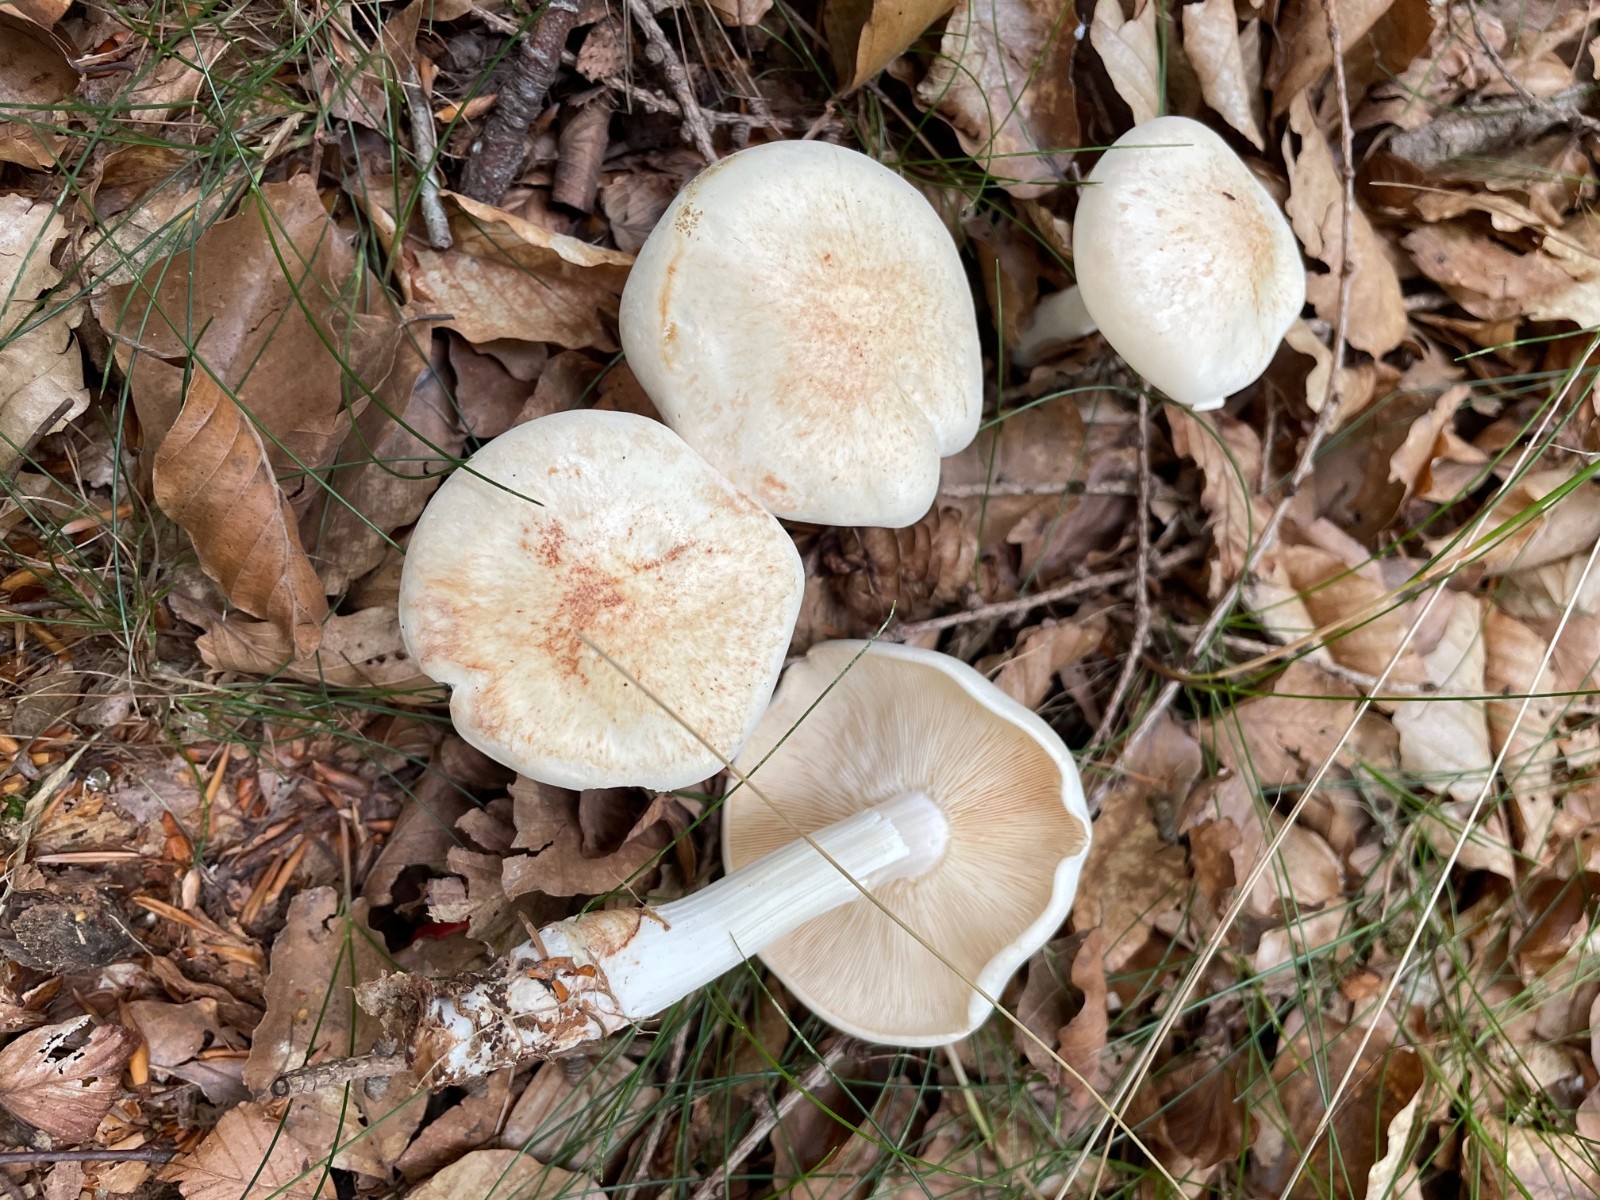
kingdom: Fungi
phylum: Basidiomycota
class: Agaricomycetes
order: Agaricales
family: Omphalotaceae
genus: Rhodocollybia
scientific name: Rhodocollybia maculata
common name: plettet fladhat
